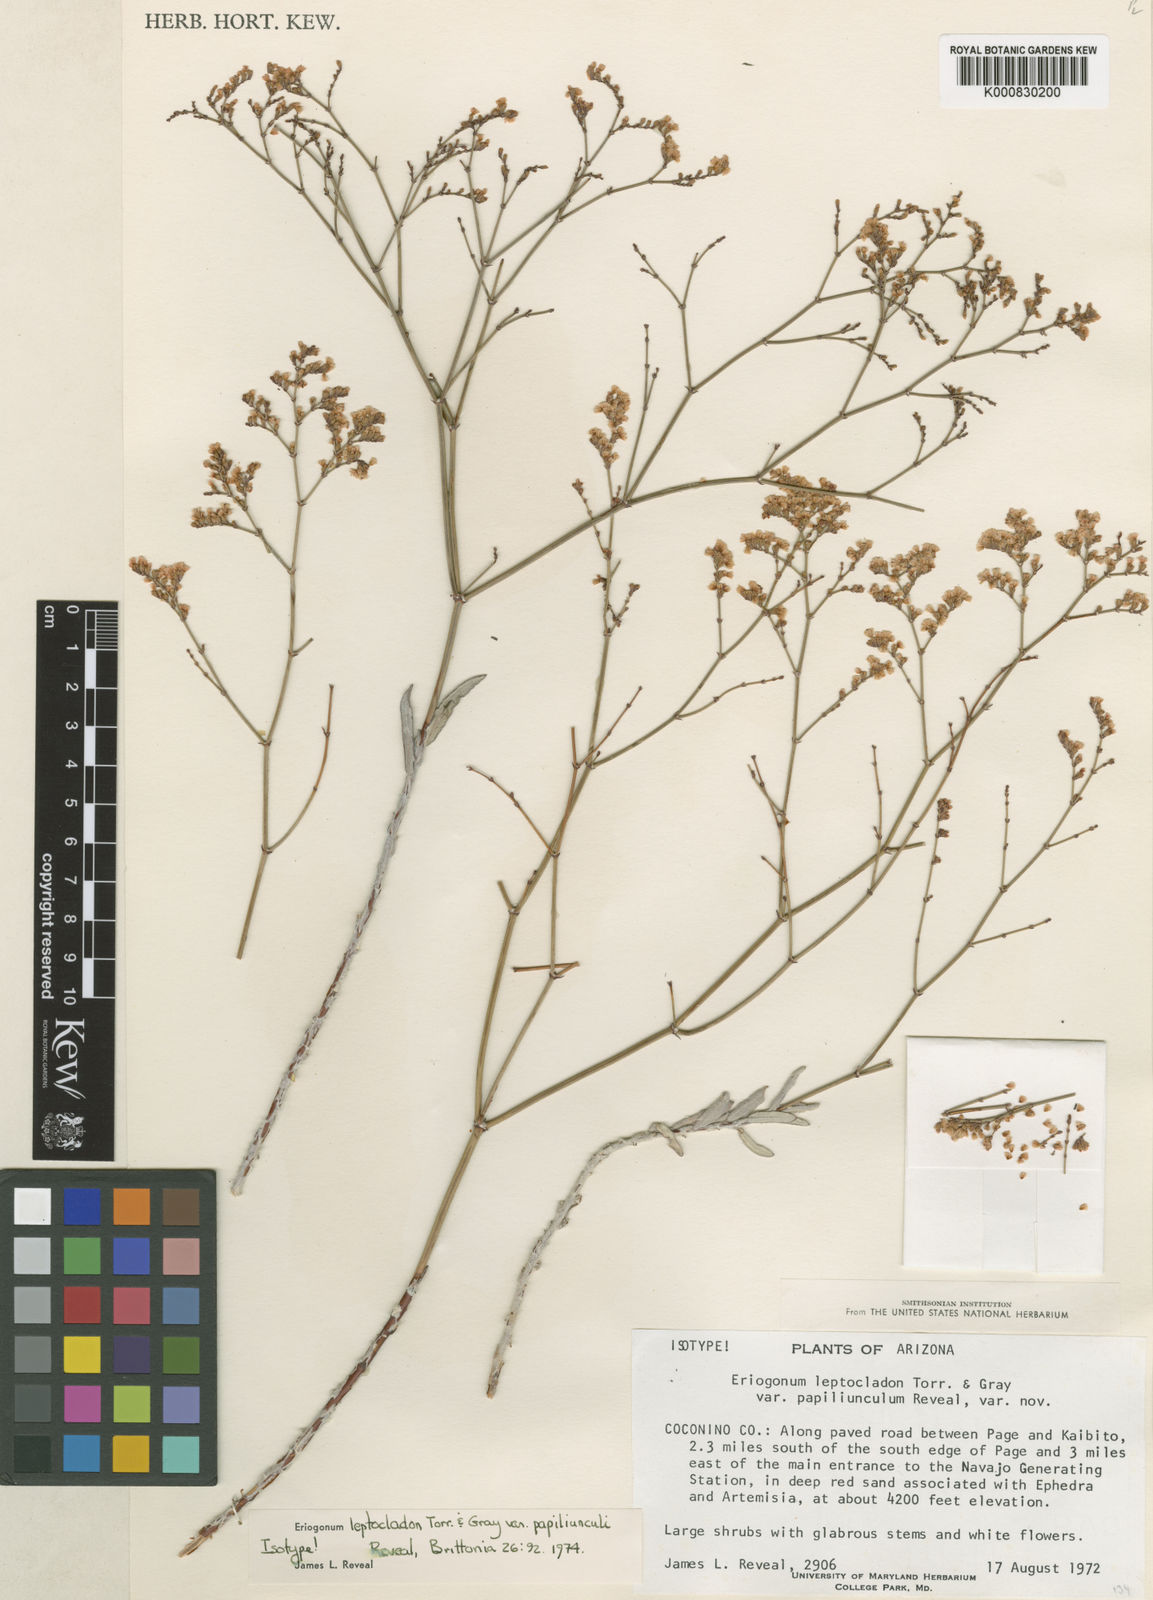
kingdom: Plantae
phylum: Tracheophyta
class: Magnoliopsida
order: Caryophyllales
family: Polygonaceae
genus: Eriogonum
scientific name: Eriogonum leptocladon
